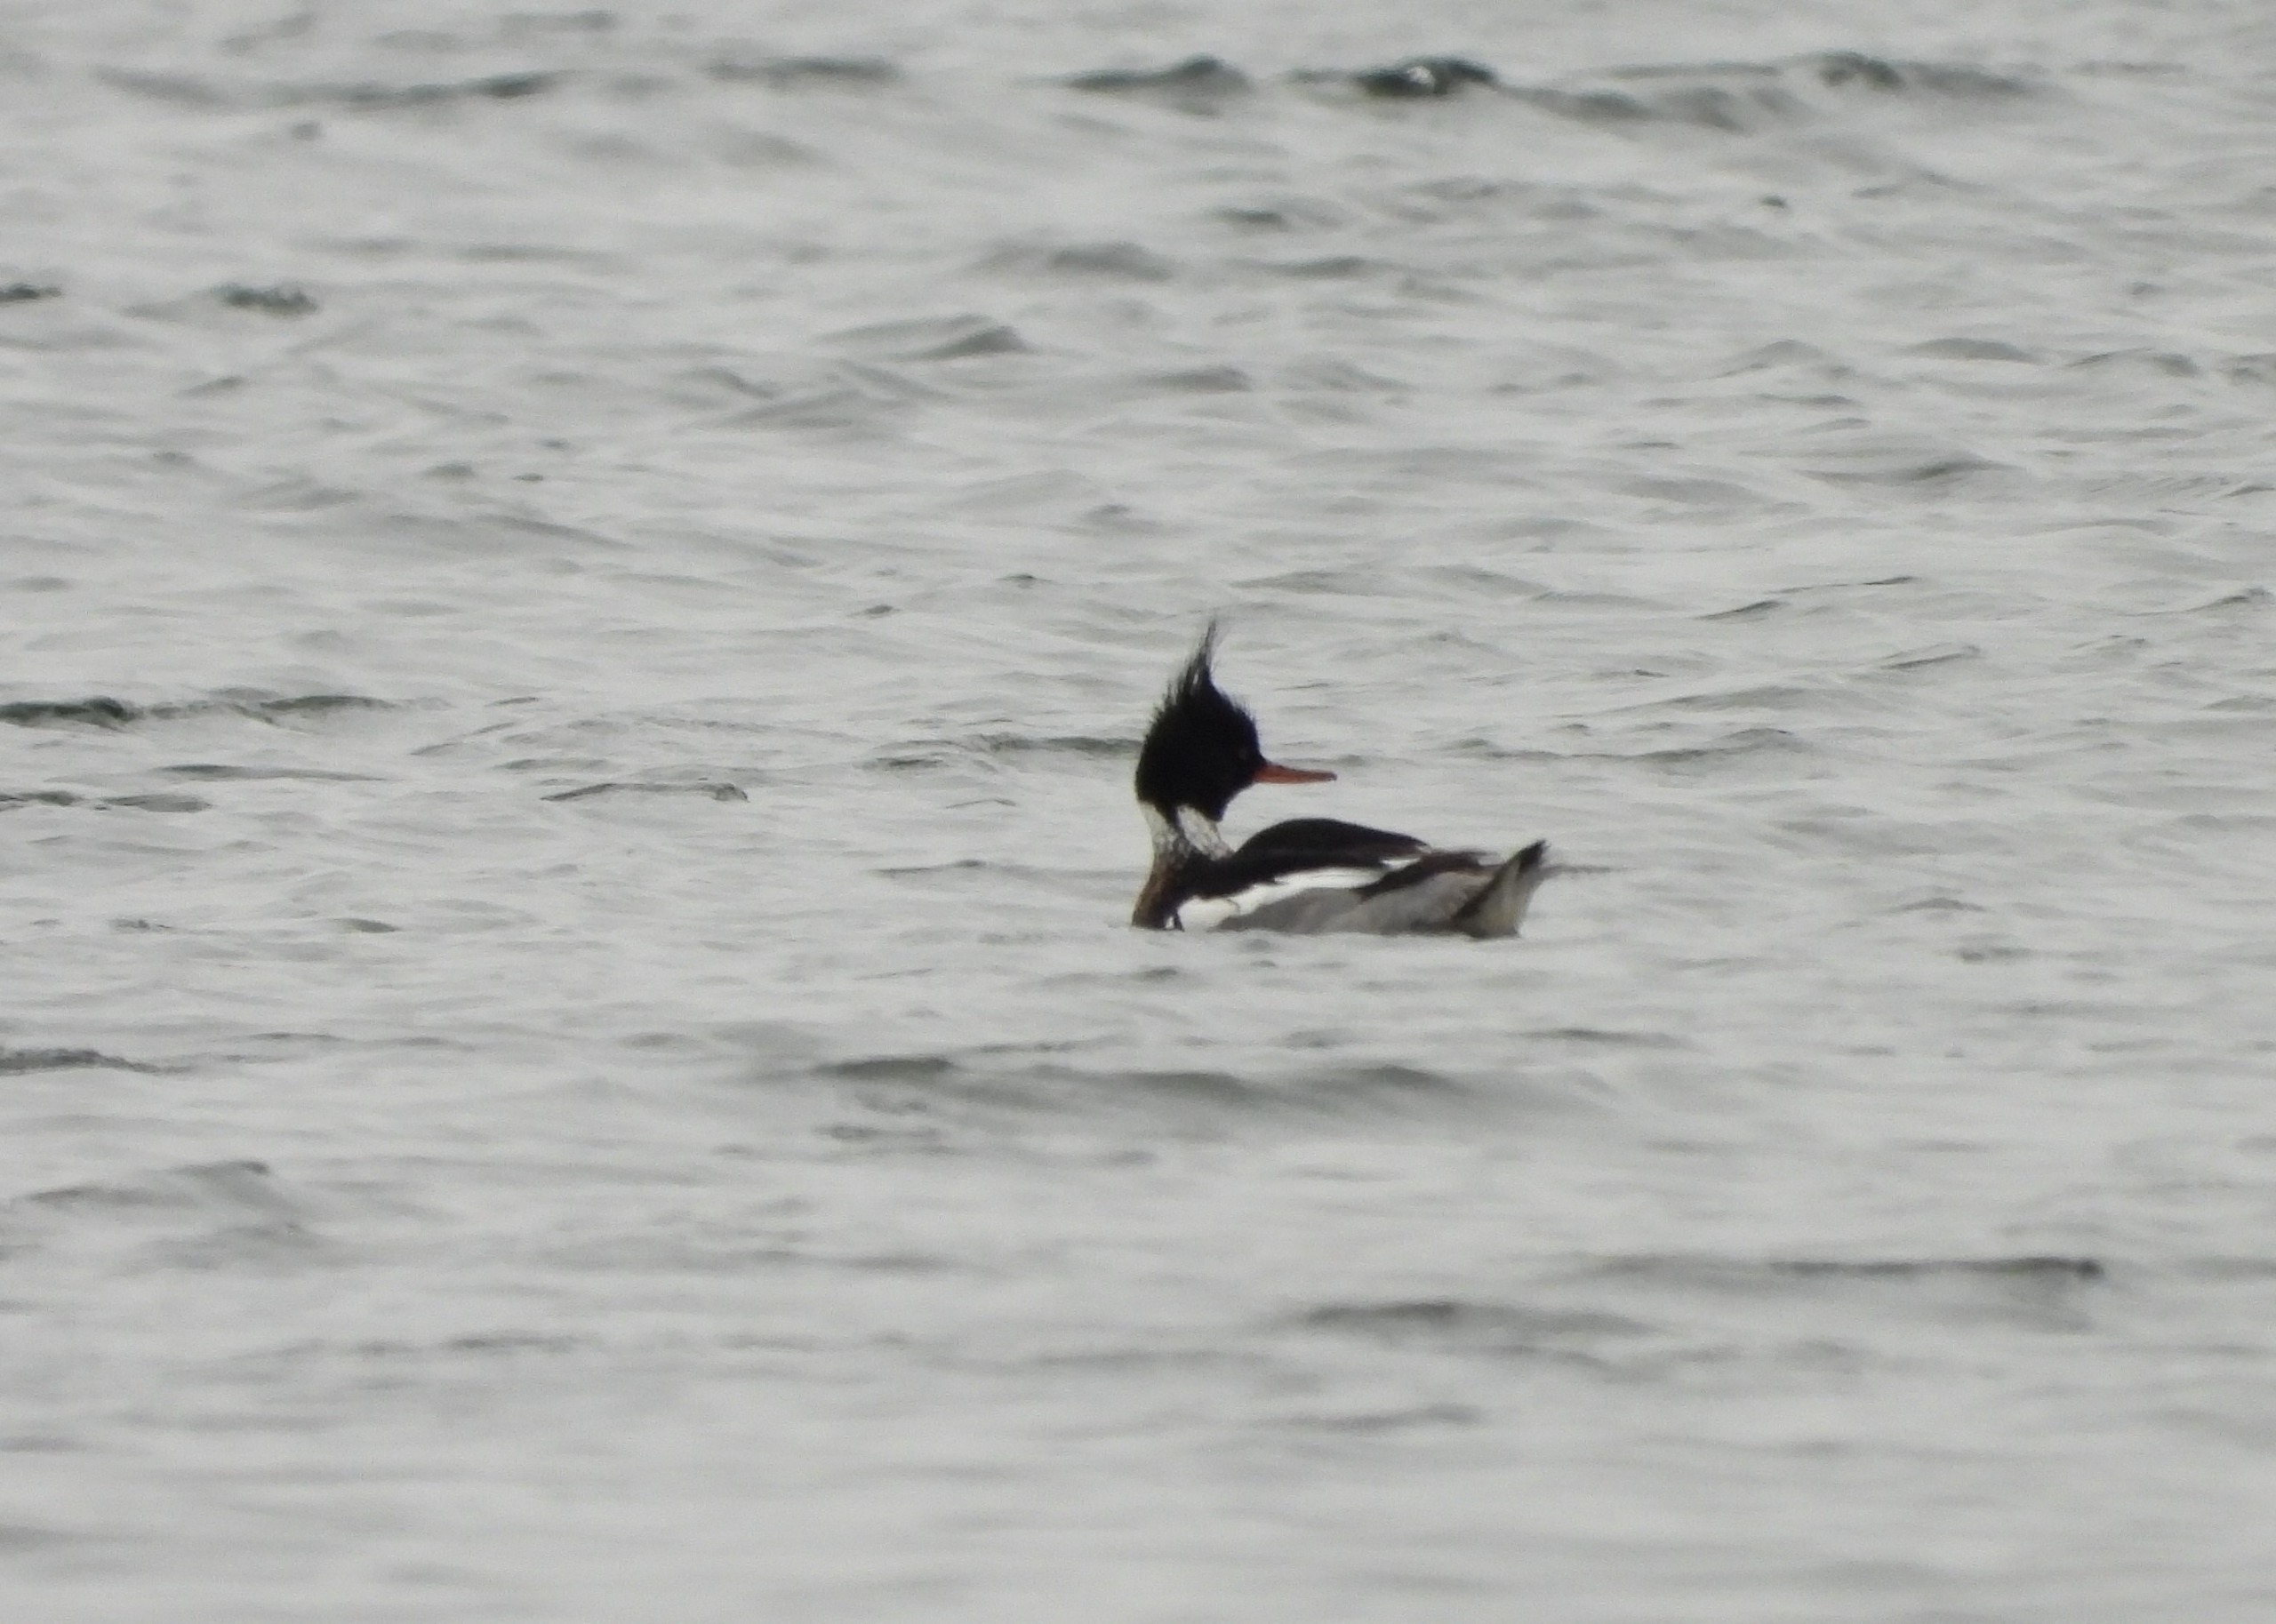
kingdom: Animalia
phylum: Chordata
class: Aves
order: Anseriformes
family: Anatidae
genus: Mergus
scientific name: Mergus serrator
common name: Toppet skallesluger
